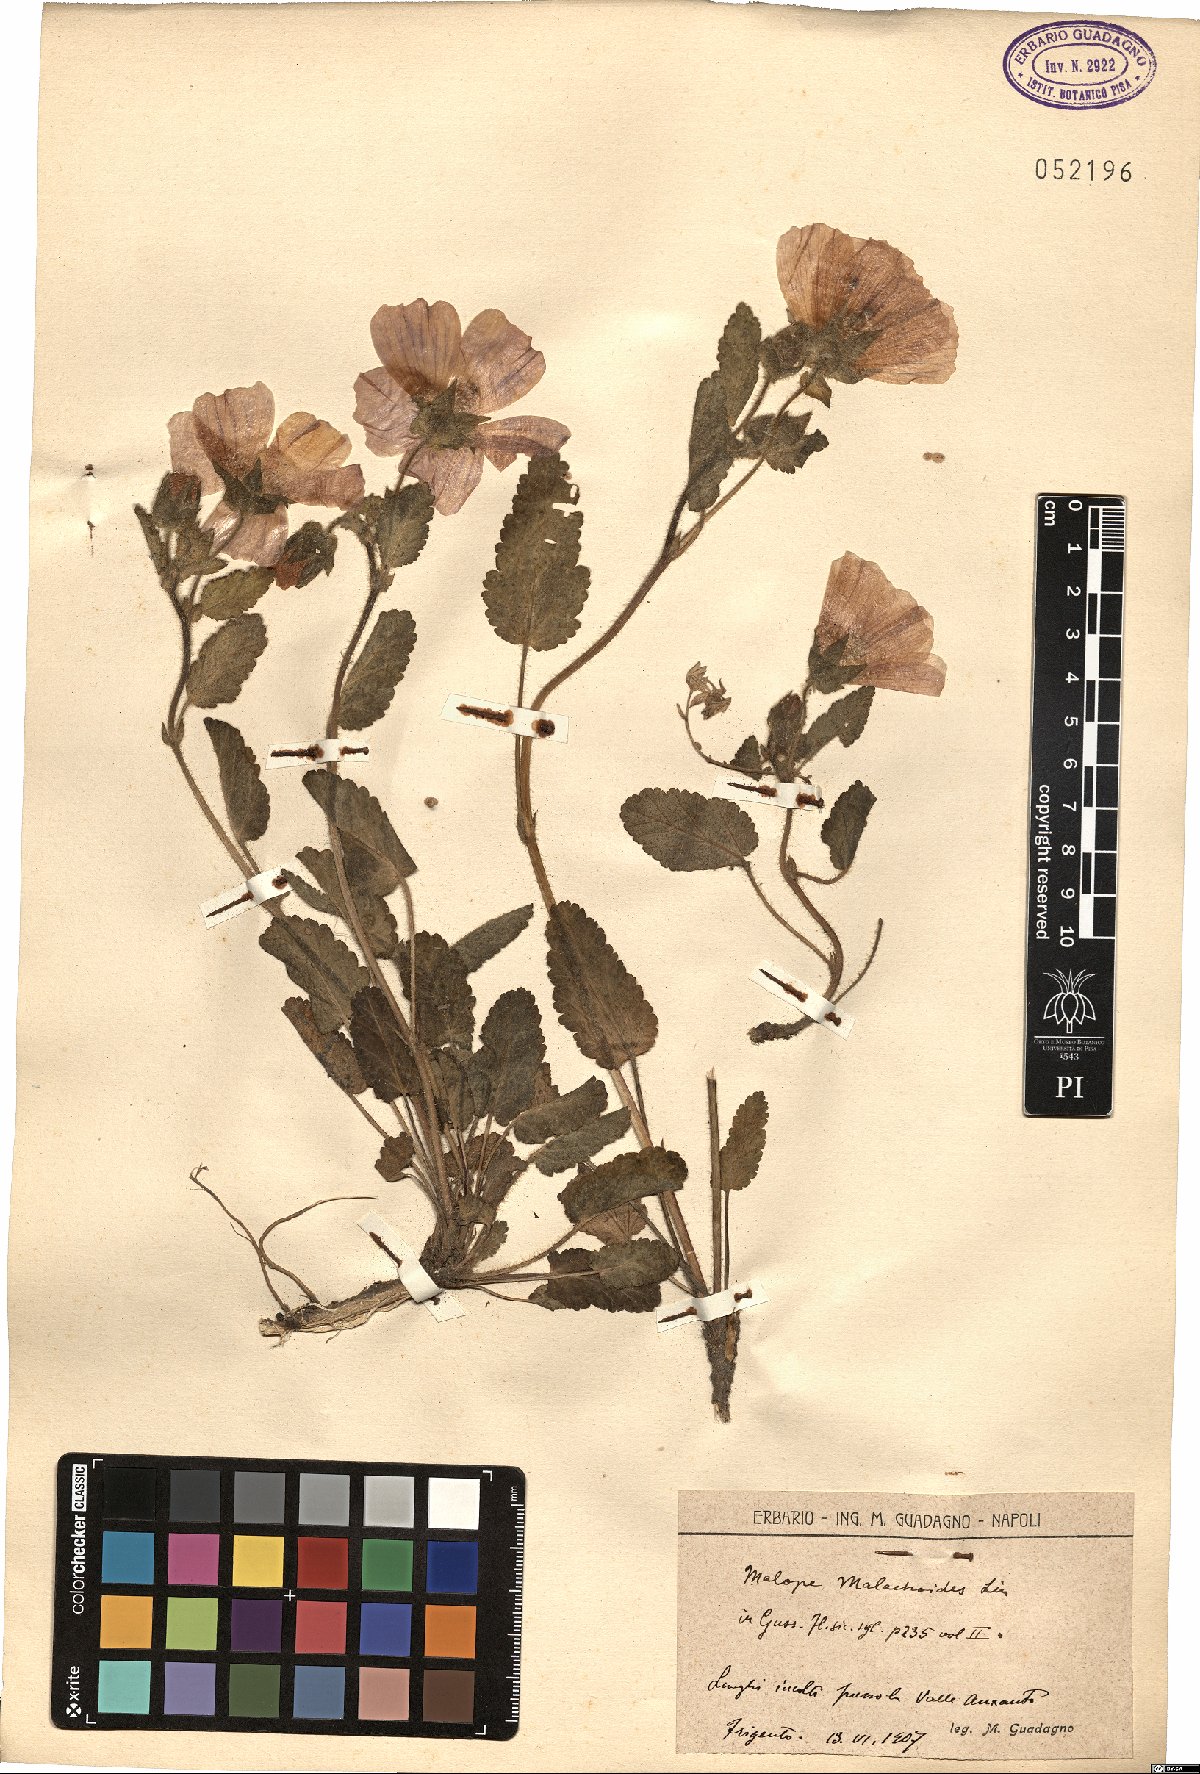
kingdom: Plantae
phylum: Tracheophyta
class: Magnoliopsida
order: Malvales
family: Malvaceae
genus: Malope
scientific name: Malope malacoides
